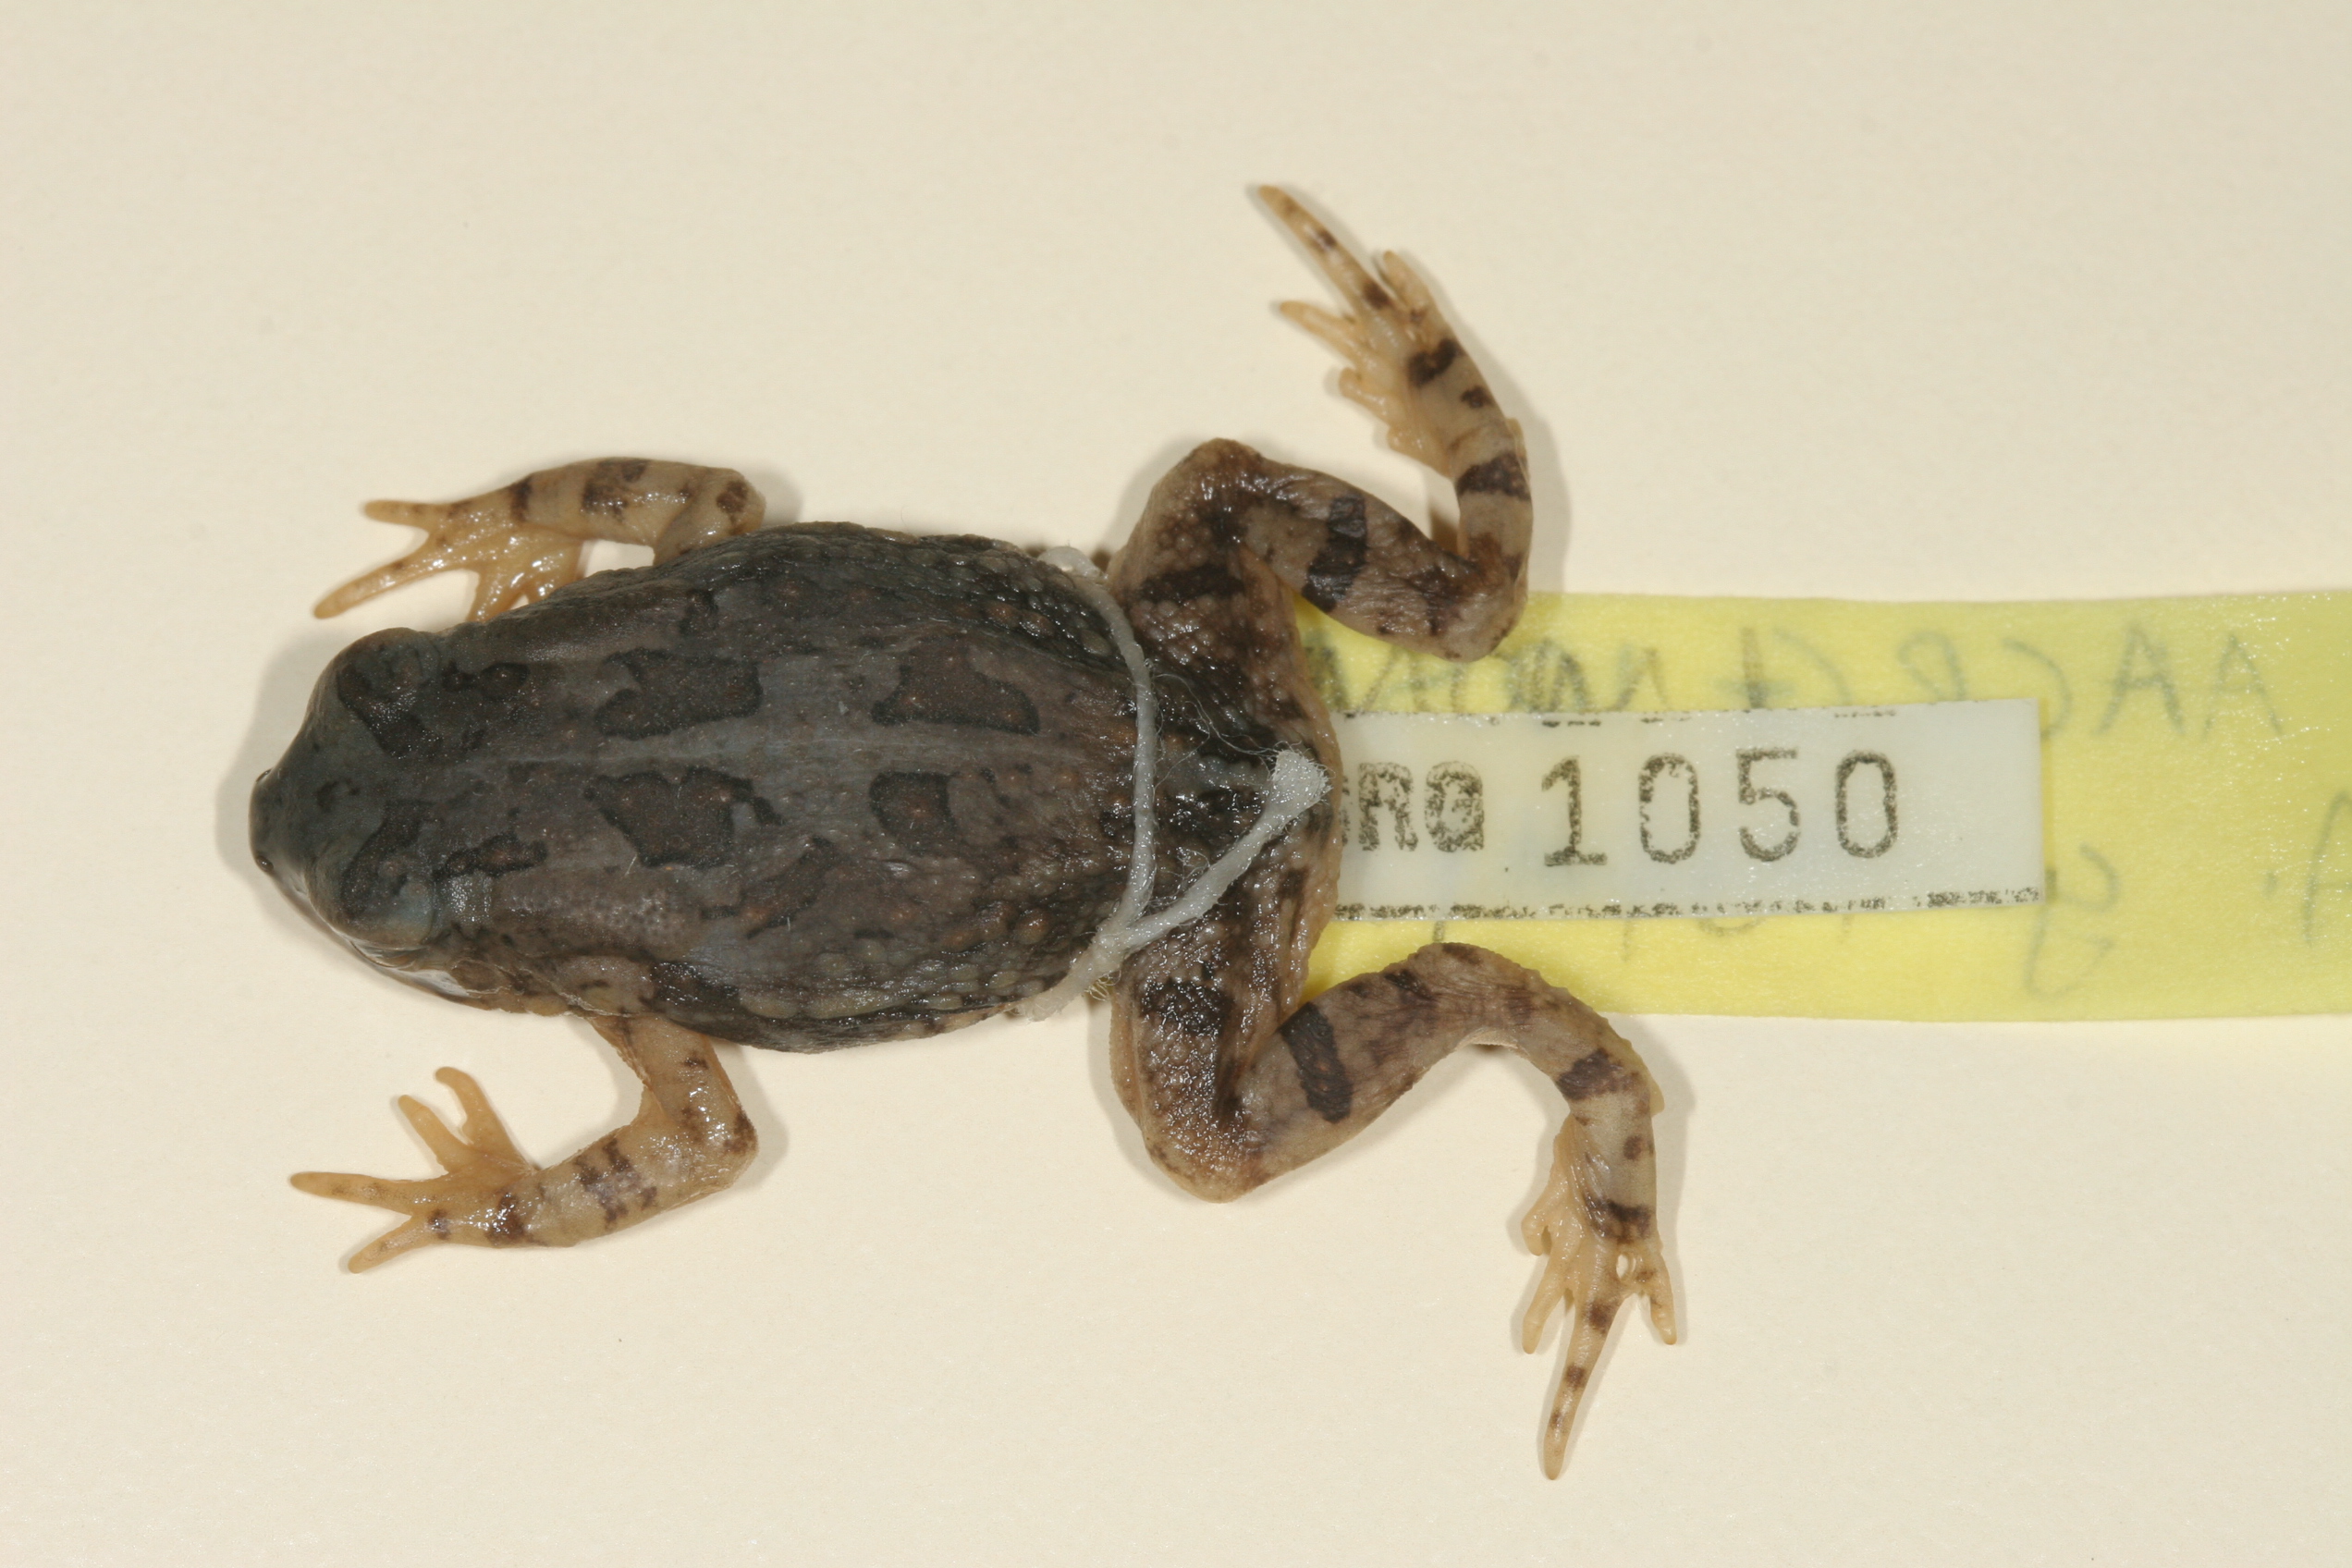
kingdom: Animalia
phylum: Chordata
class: Amphibia
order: Anura
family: Bufonidae
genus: Sclerophrys
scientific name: Sclerophrys poweri
